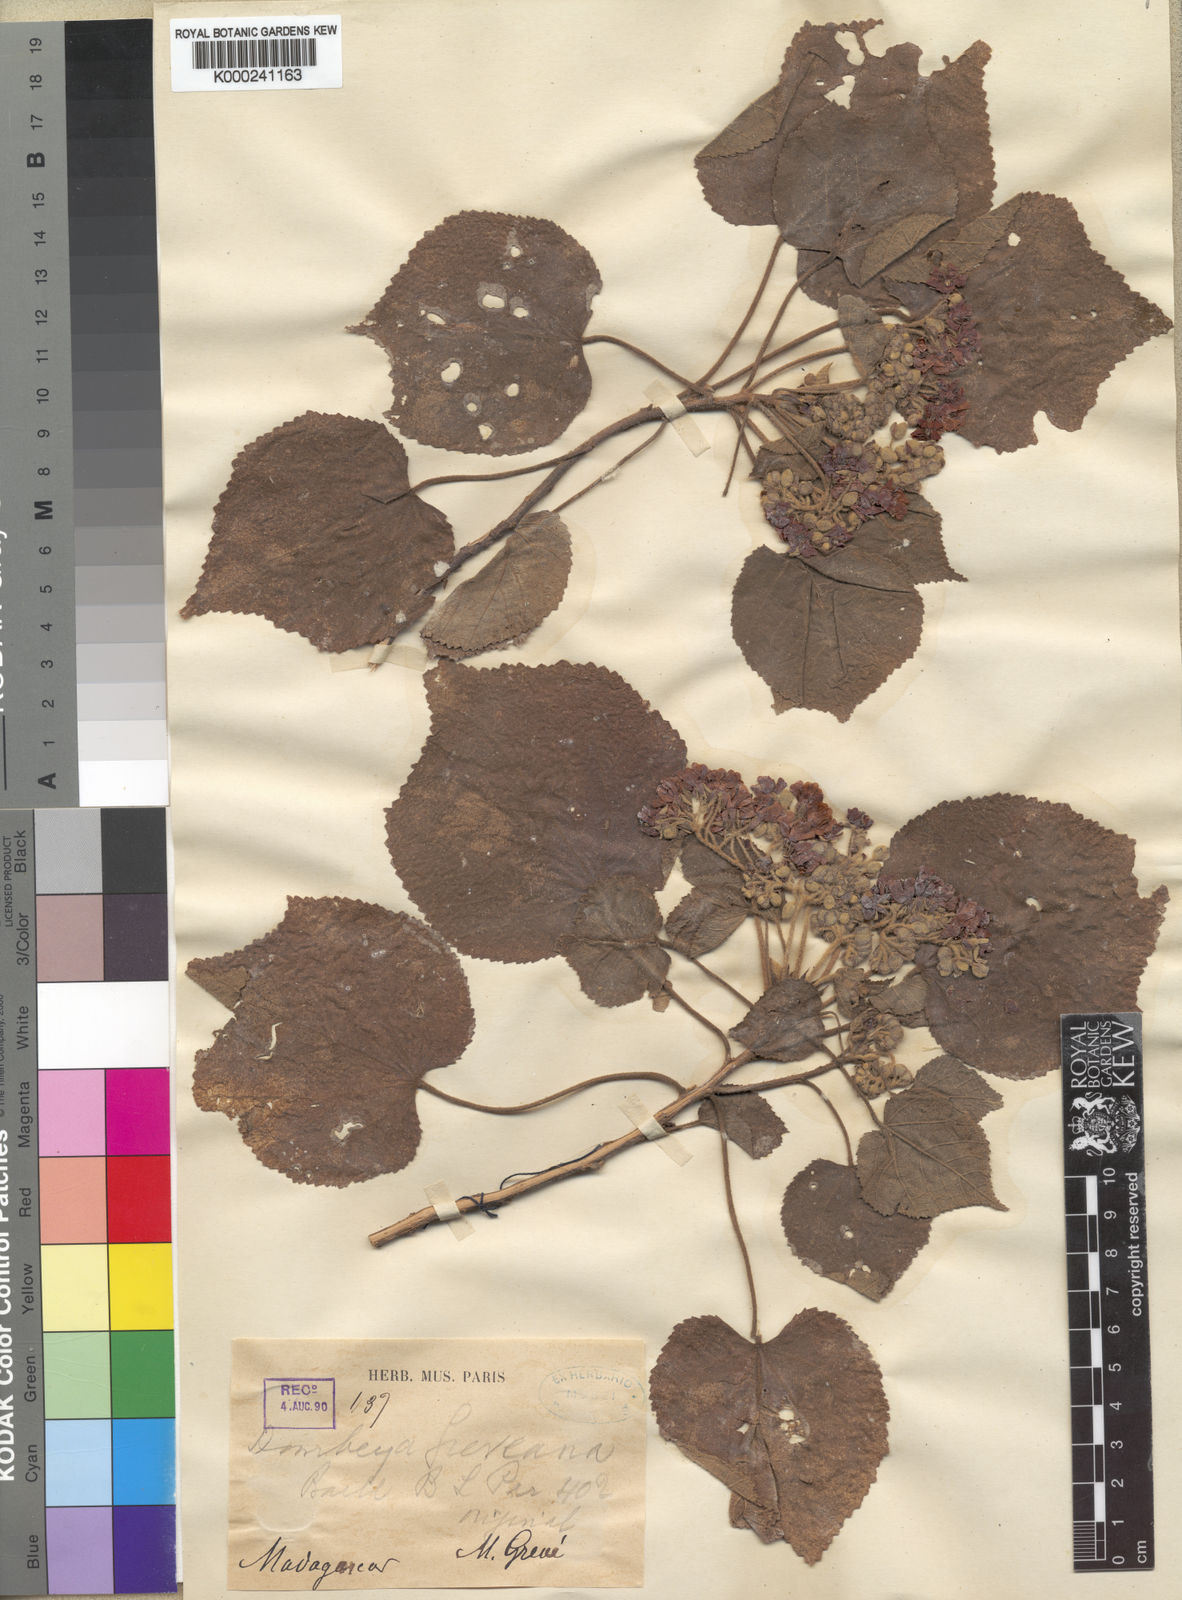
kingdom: Plantae
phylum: Tracheophyta
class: Magnoliopsida
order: Malvales
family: Malvaceae
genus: Dombeya
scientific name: Dombeya greveana
